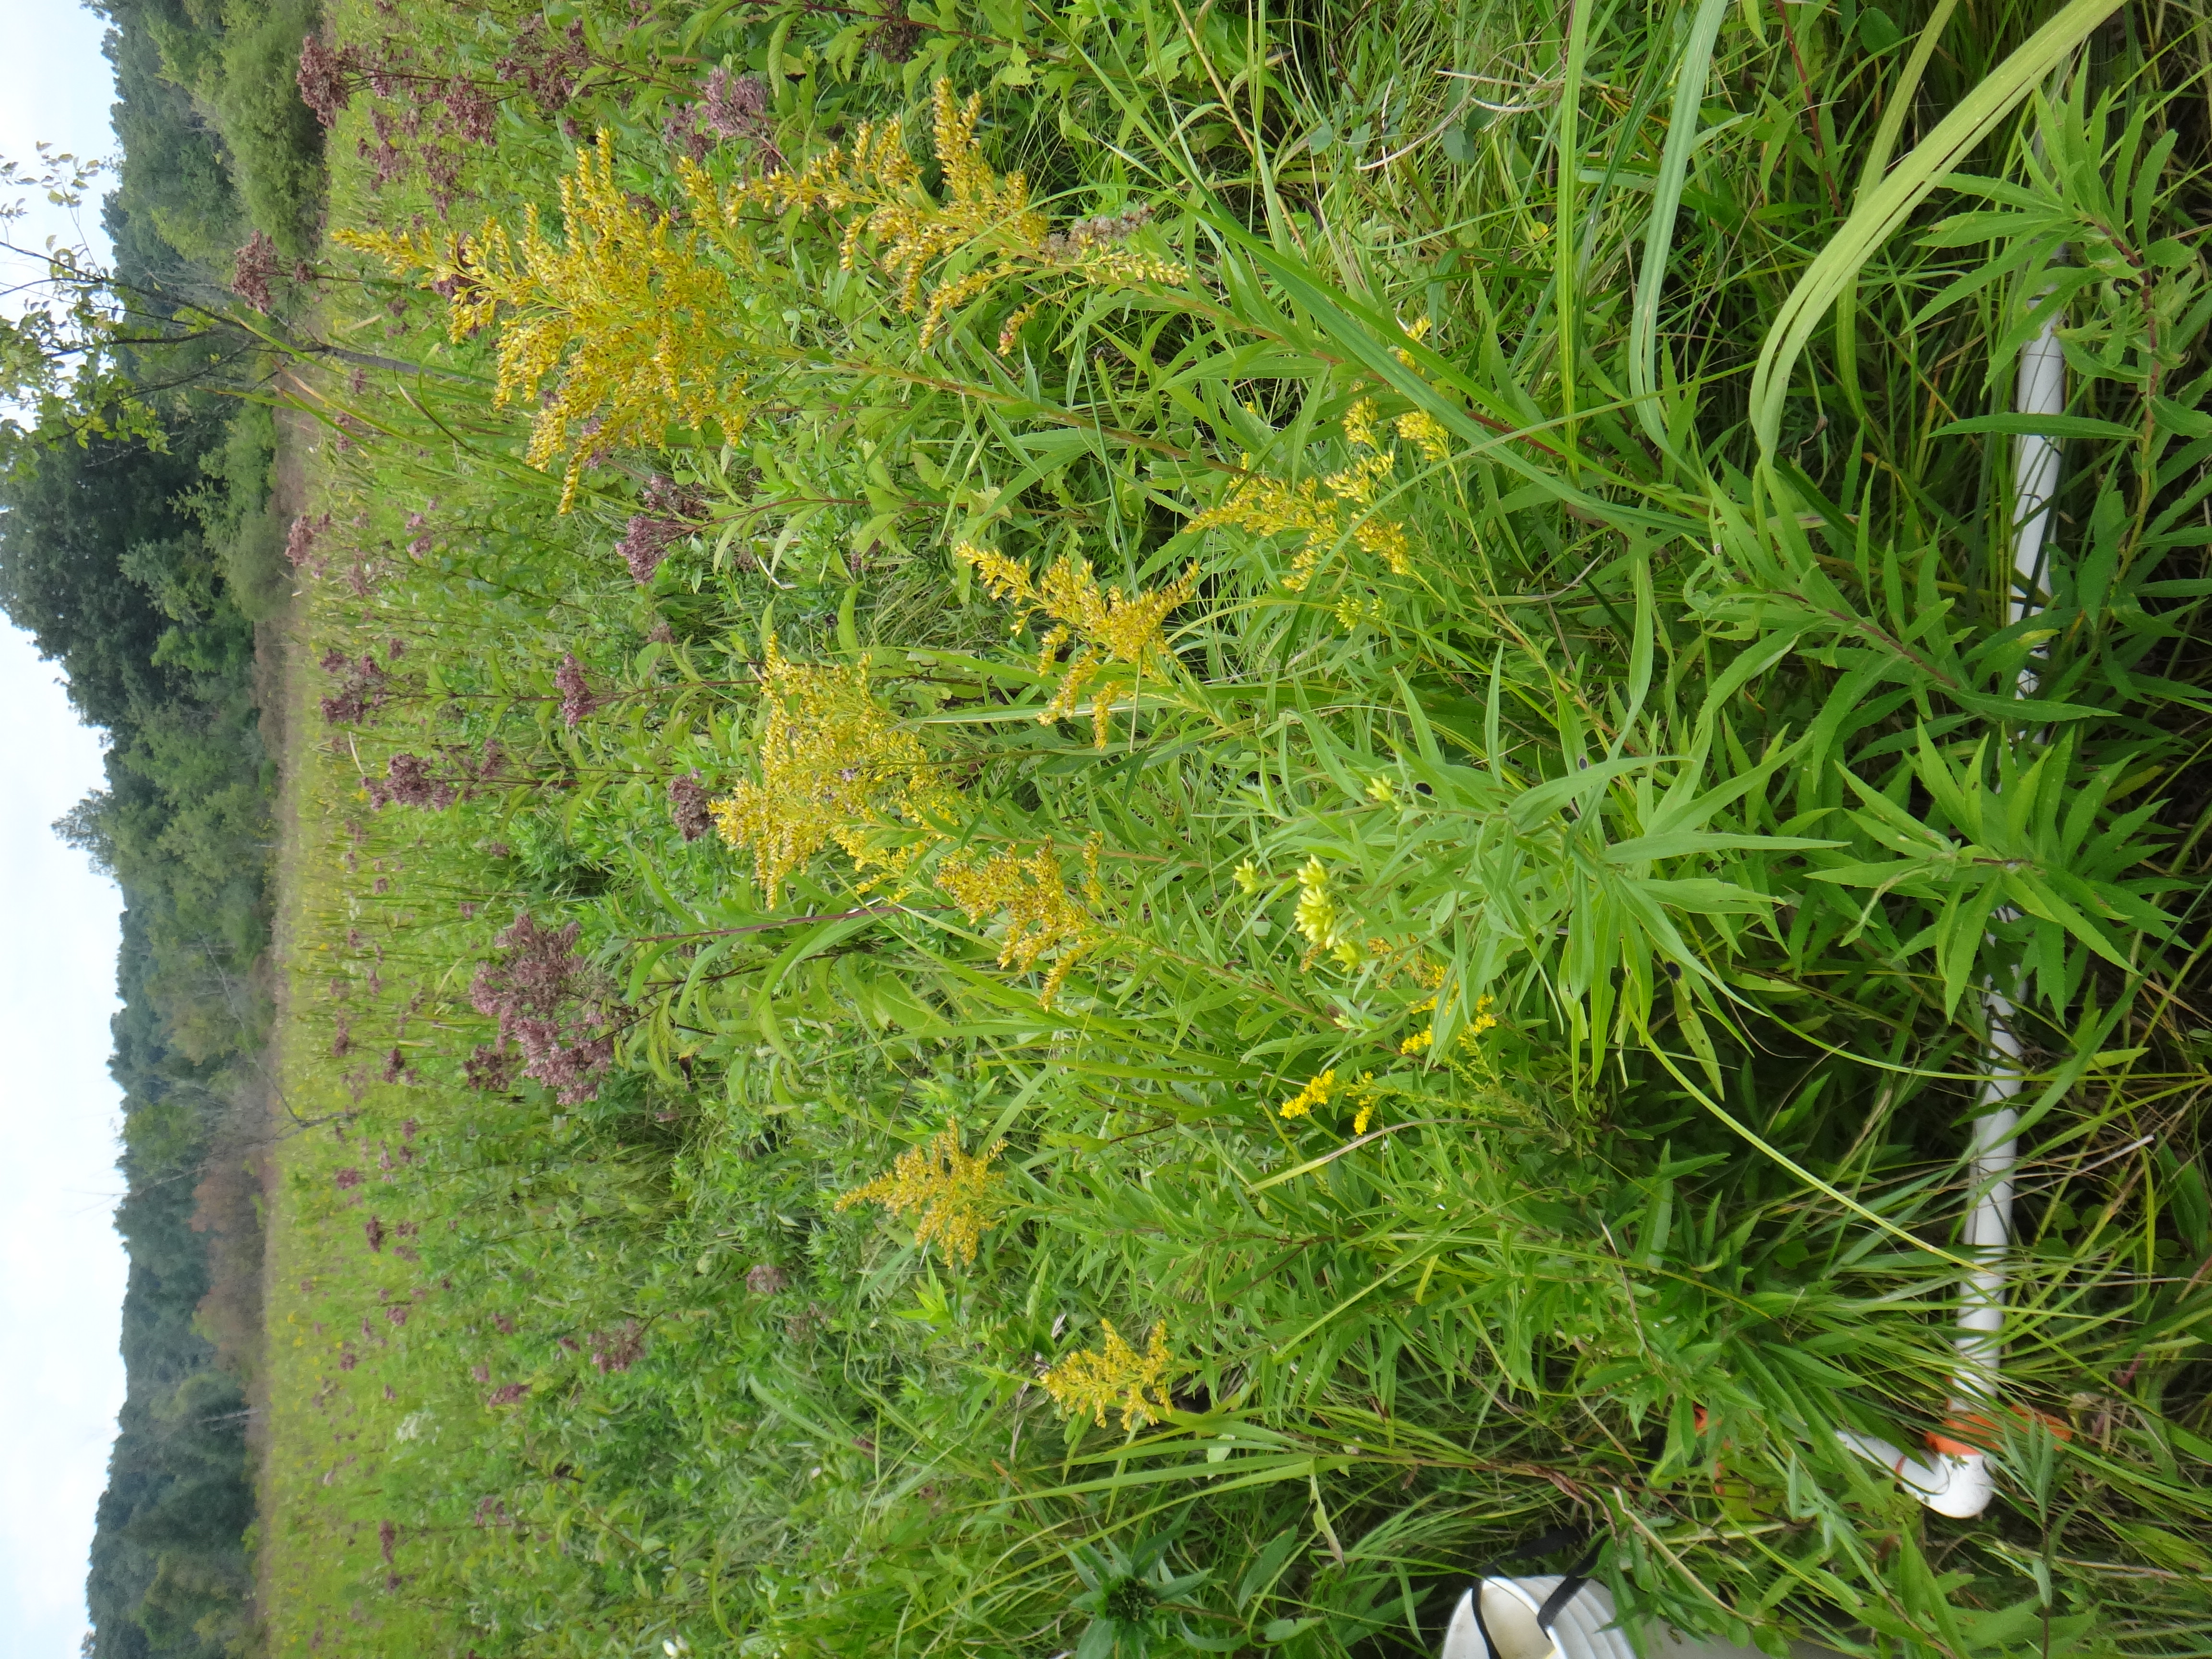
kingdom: Plantae
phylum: Tracheophyta
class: Magnoliopsida
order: Apiales
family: Apiaceae
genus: Daucus
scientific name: Daucus carota
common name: Wild carrot
